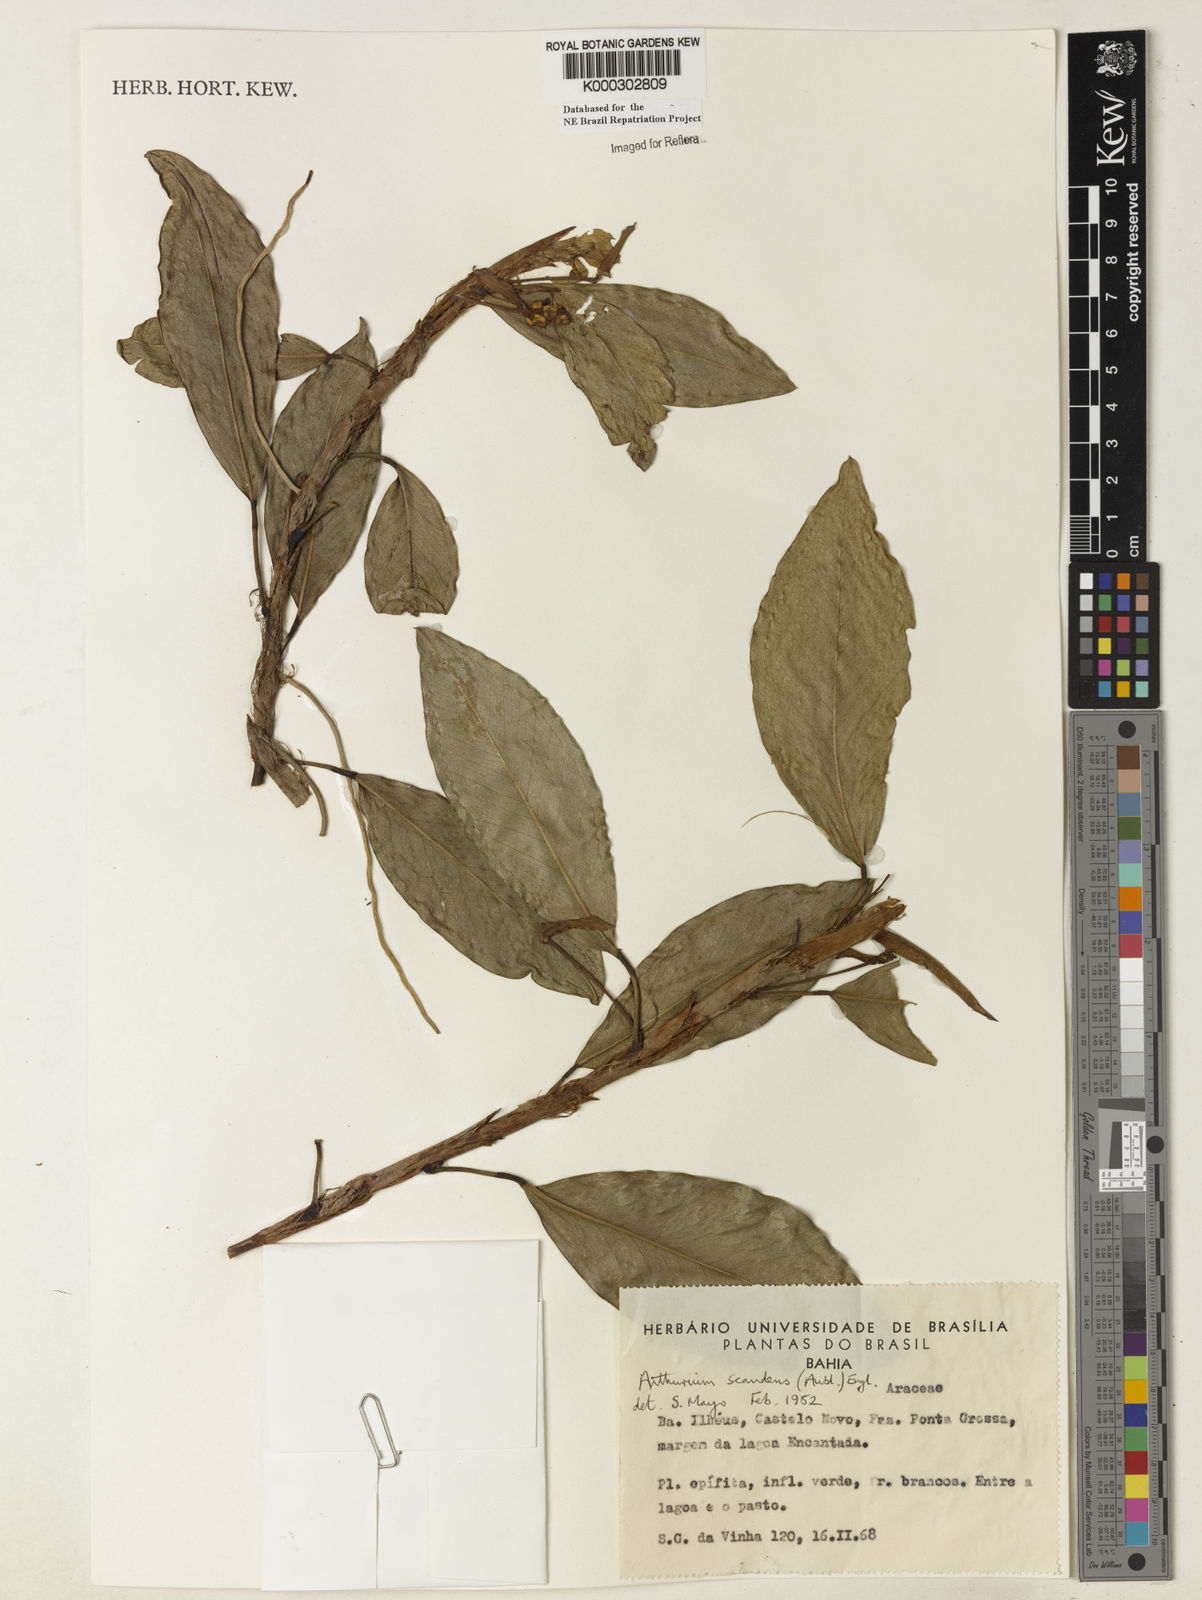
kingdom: Plantae
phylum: Tracheophyta
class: Liliopsida
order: Alismatales
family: Araceae
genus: Anthurium
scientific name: Anthurium scandens
